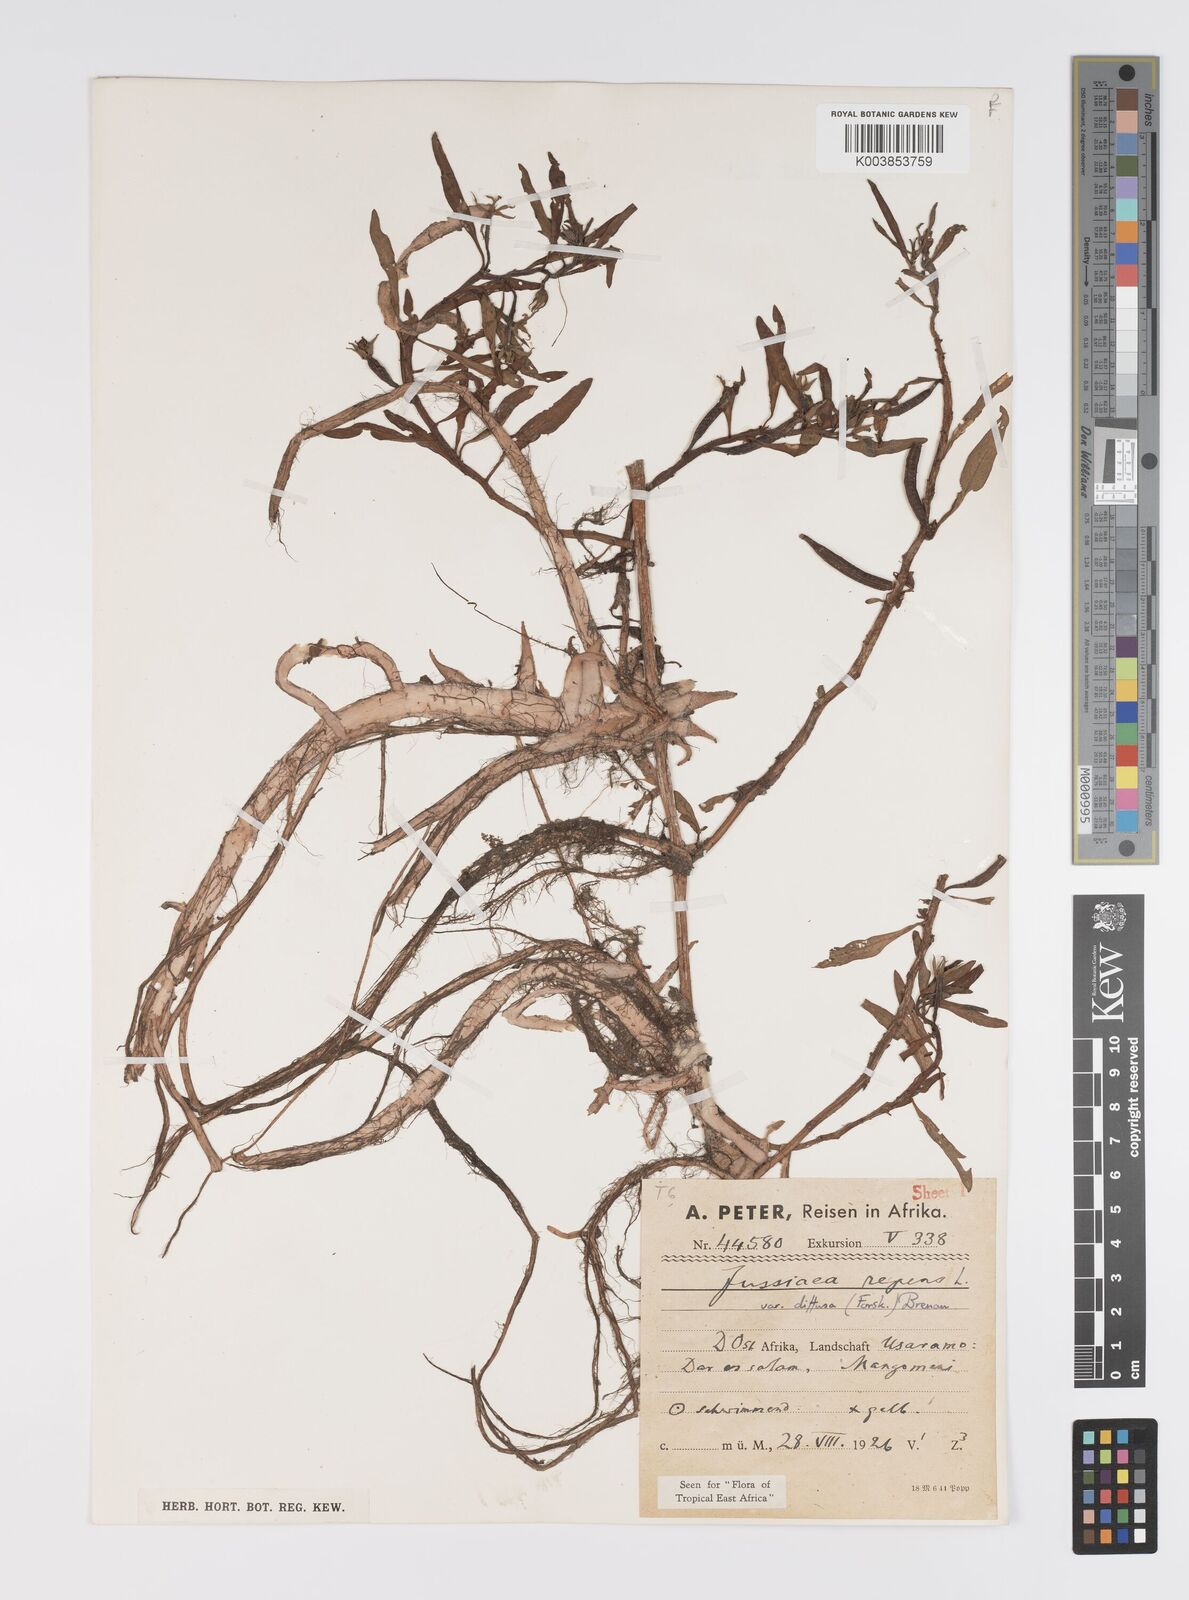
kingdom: Plantae
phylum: Tracheophyta
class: Magnoliopsida
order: Myrtales
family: Onagraceae
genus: Ludwigia
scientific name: Ludwigia repens
